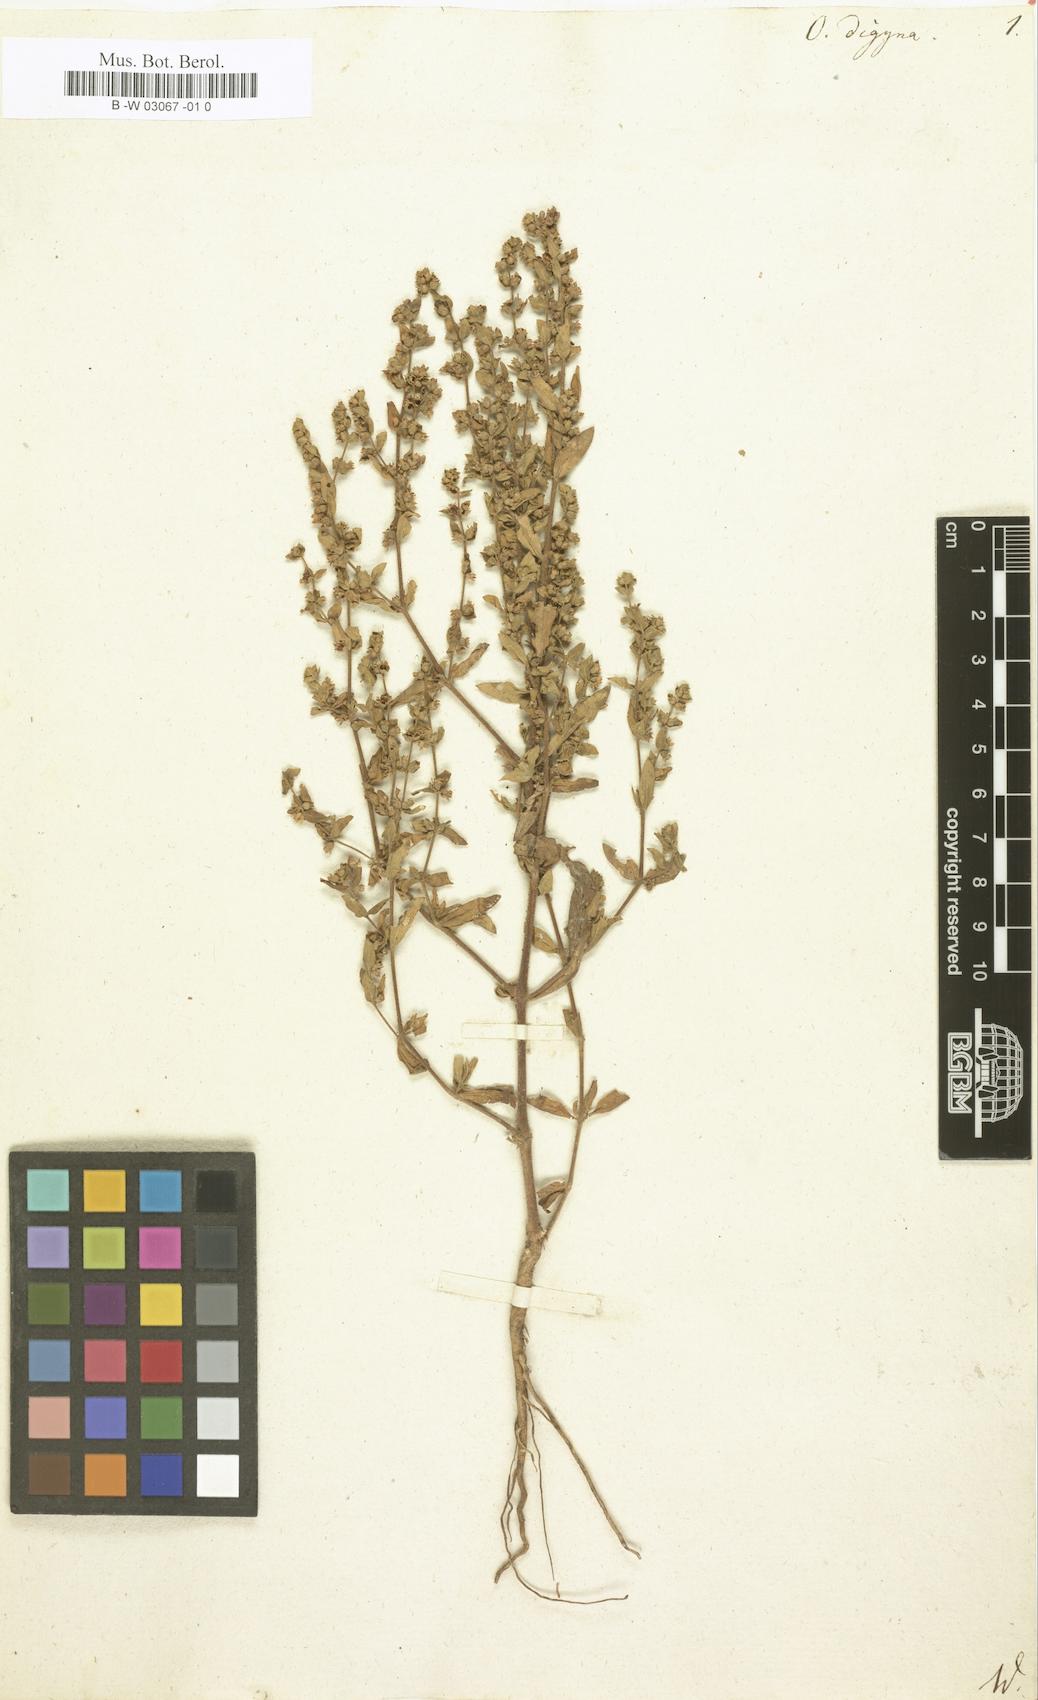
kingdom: Plantae
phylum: Tracheophyta
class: Magnoliopsida
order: Vahliales
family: Vahliaceae
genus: Vahlia
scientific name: Vahlia digyna
